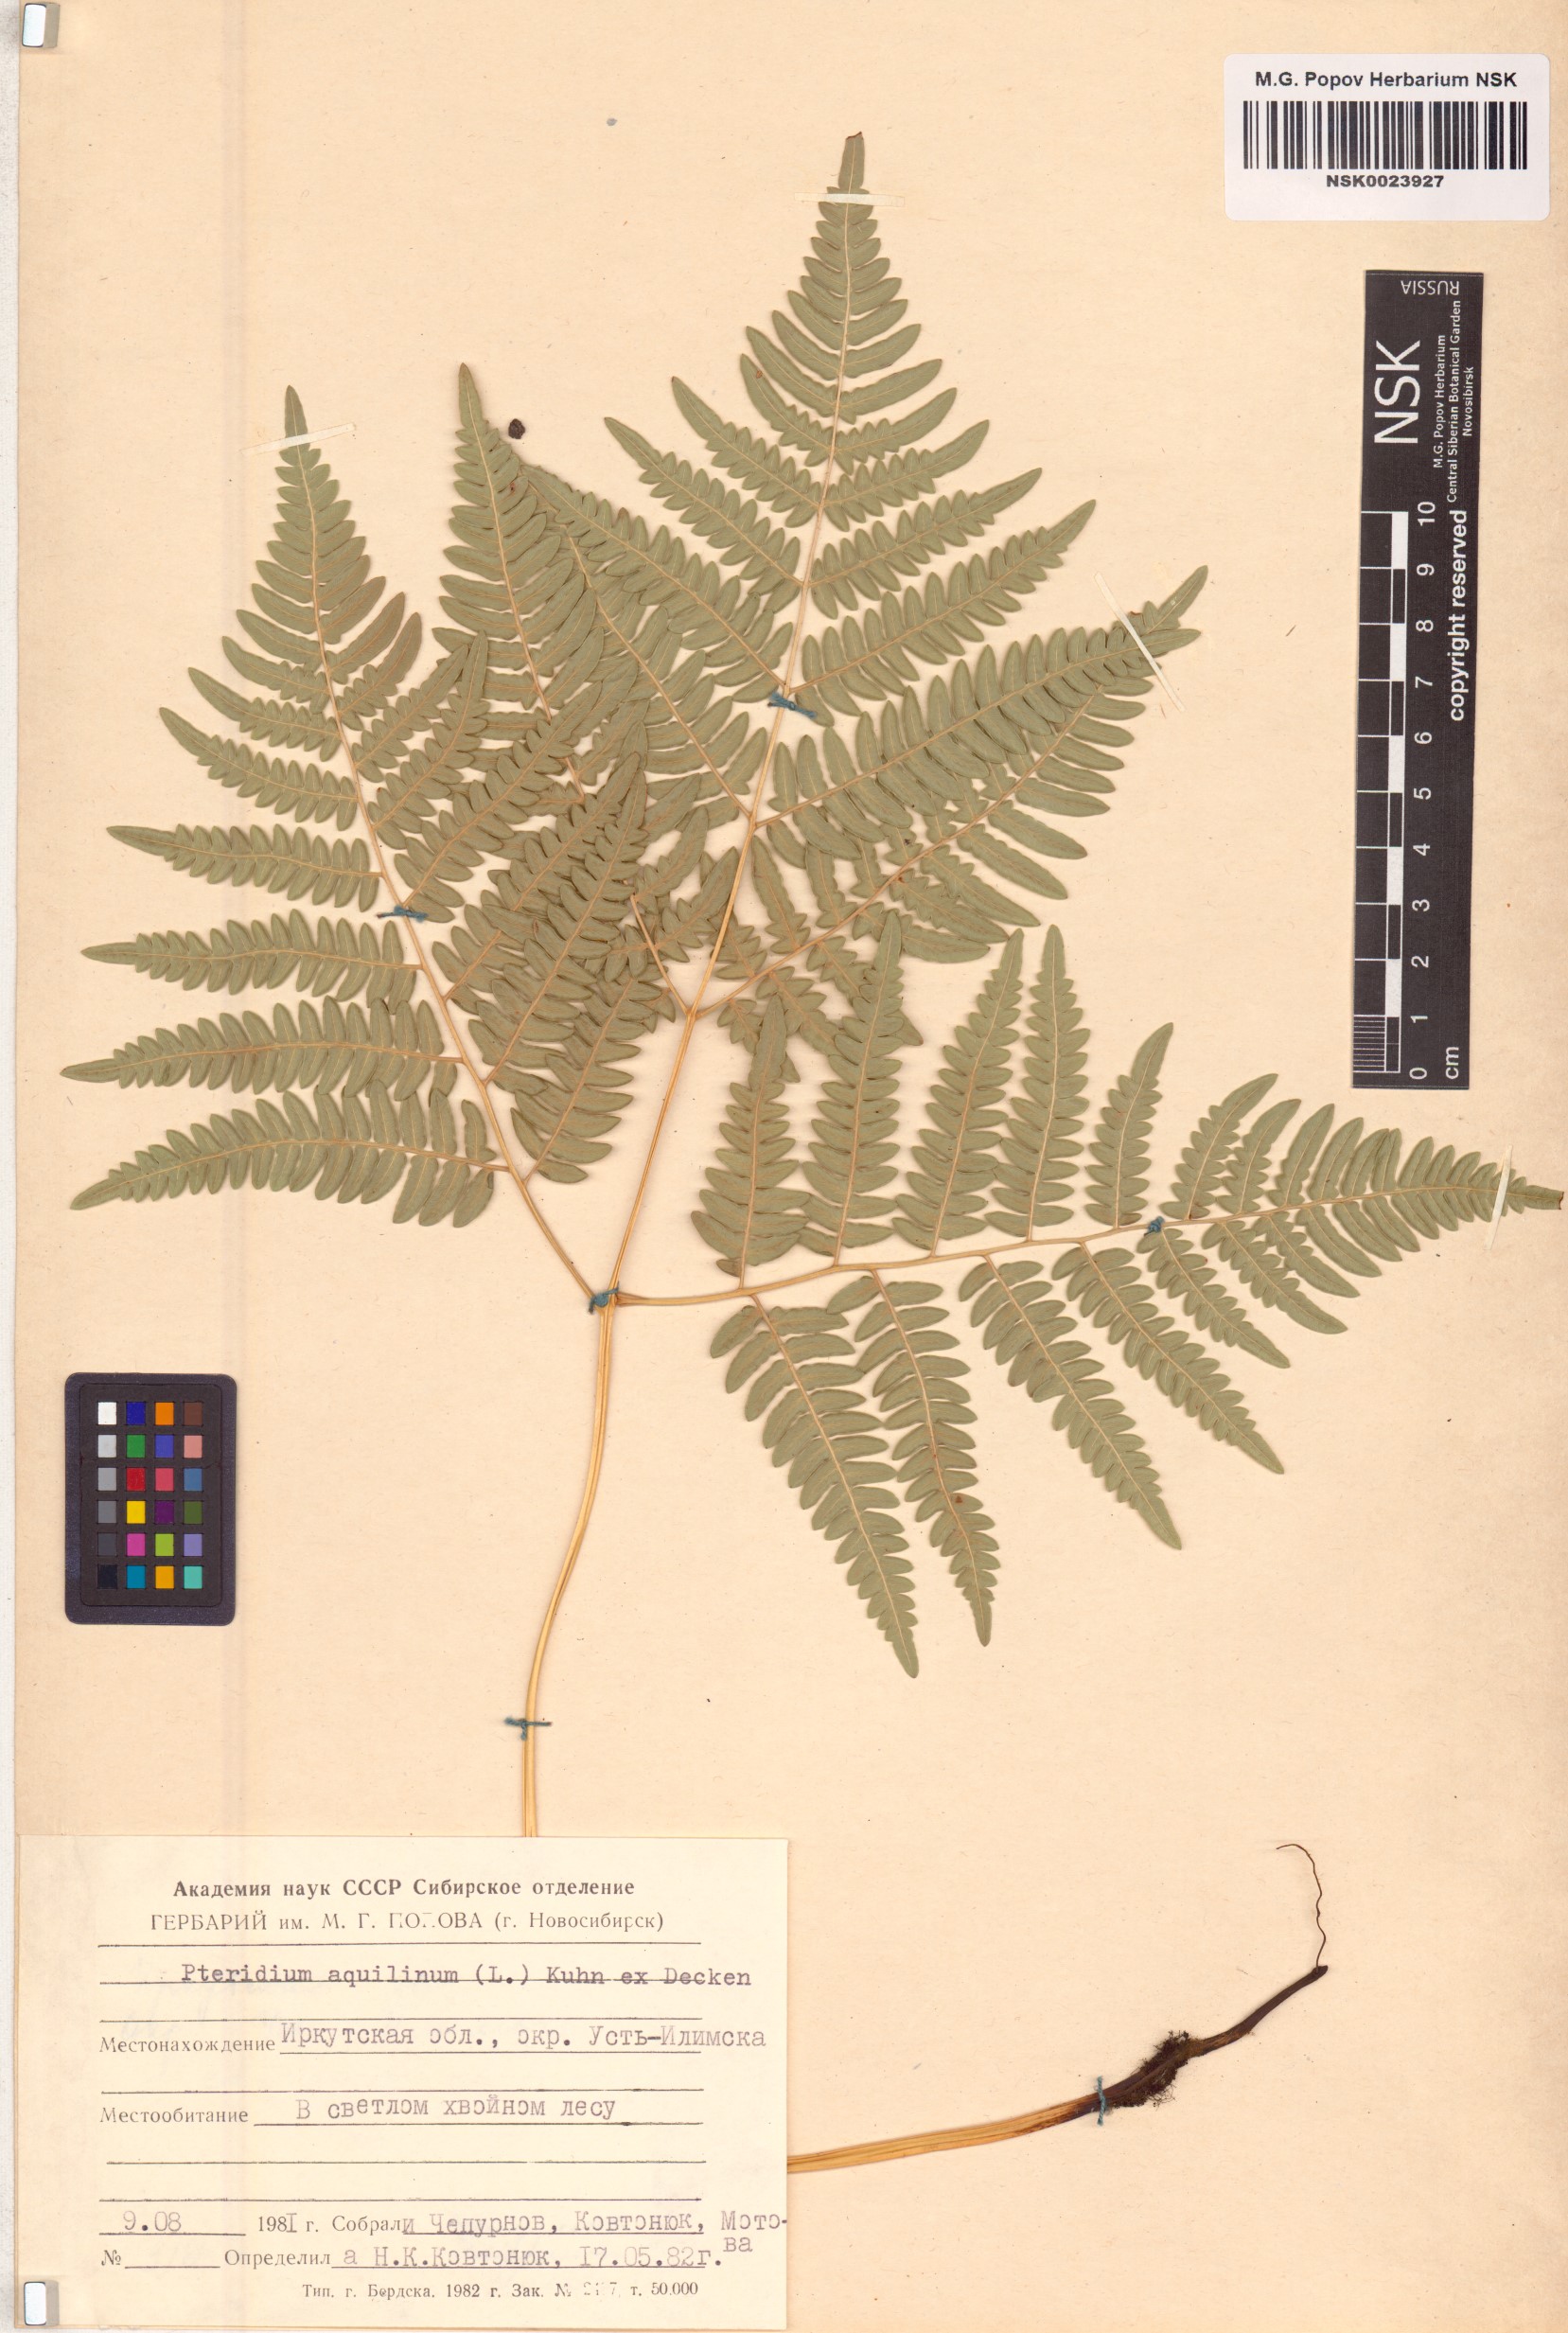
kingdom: Plantae
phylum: Tracheophyta
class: Polypodiopsida
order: Polypodiales
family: Dennstaedtiaceae
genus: Pteridium
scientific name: Pteridium aquilinum
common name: Bracken
